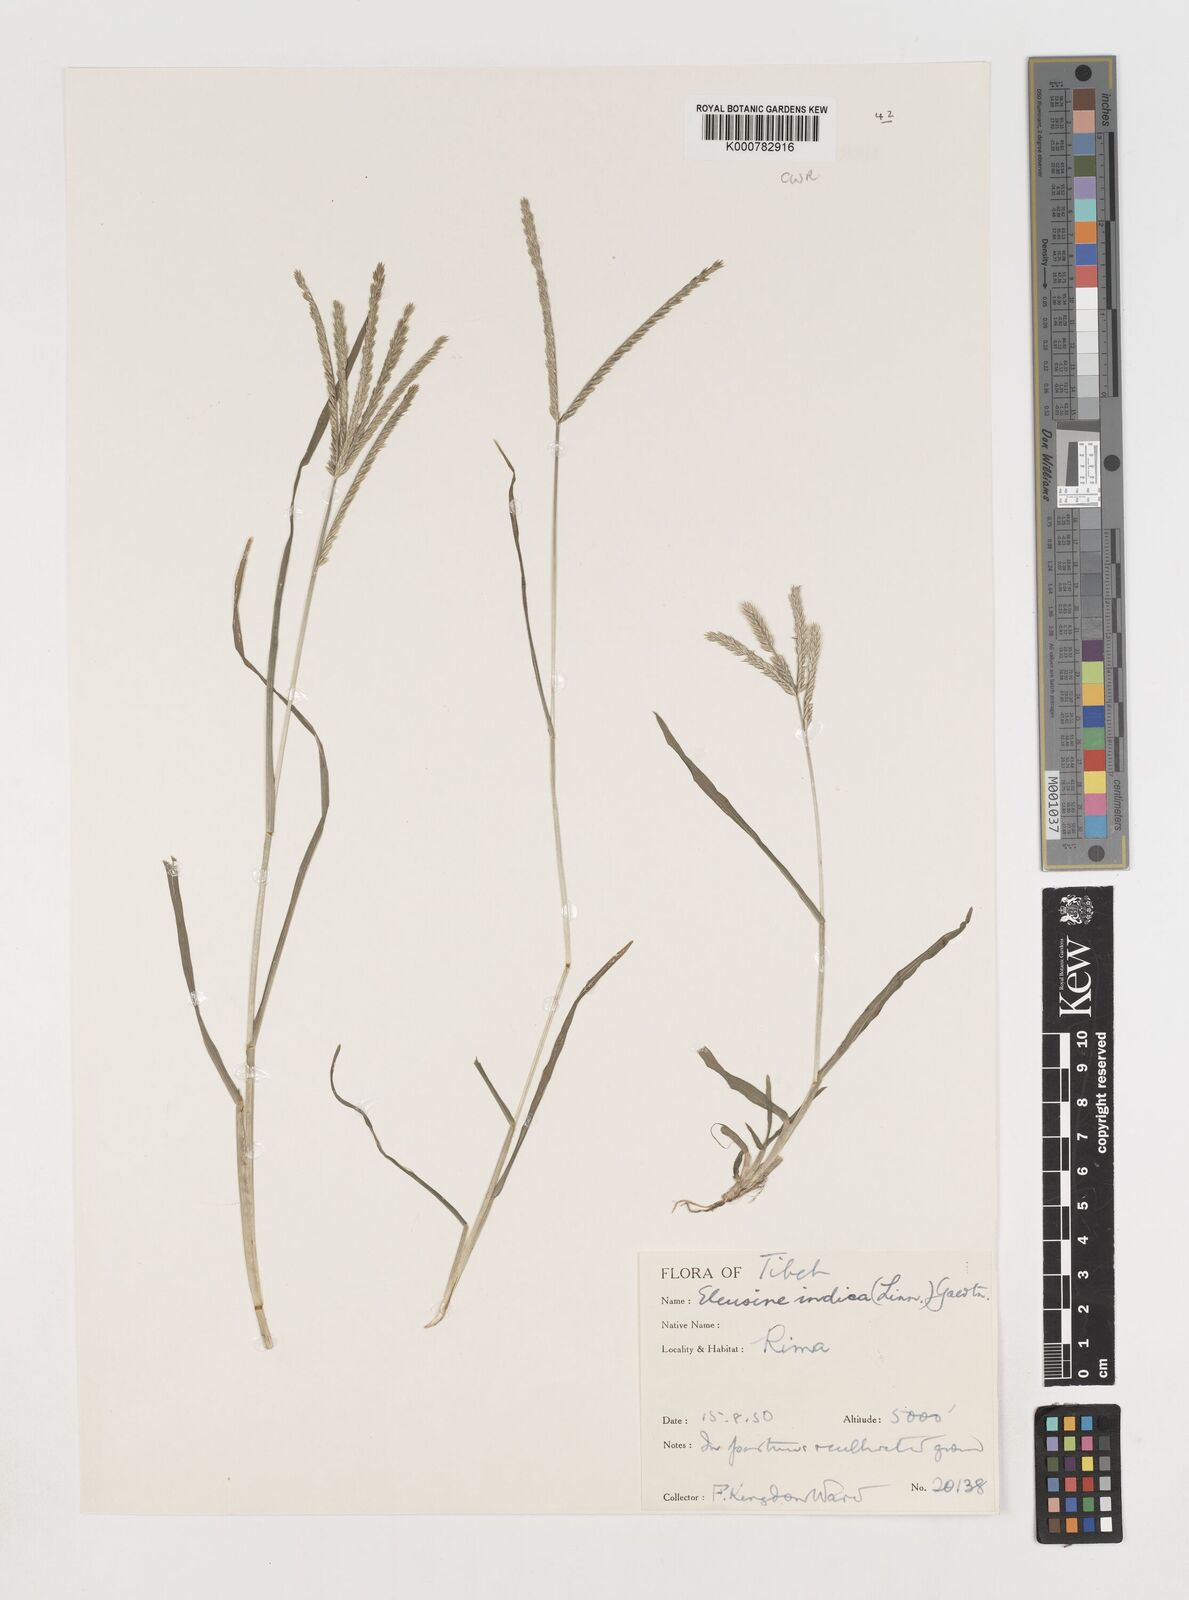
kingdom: Plantae
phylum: Tracheophyta
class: Liliopsida
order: Poales
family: Poaceae
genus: Eleusine
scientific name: Eleusine indica
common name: Yard-grass
